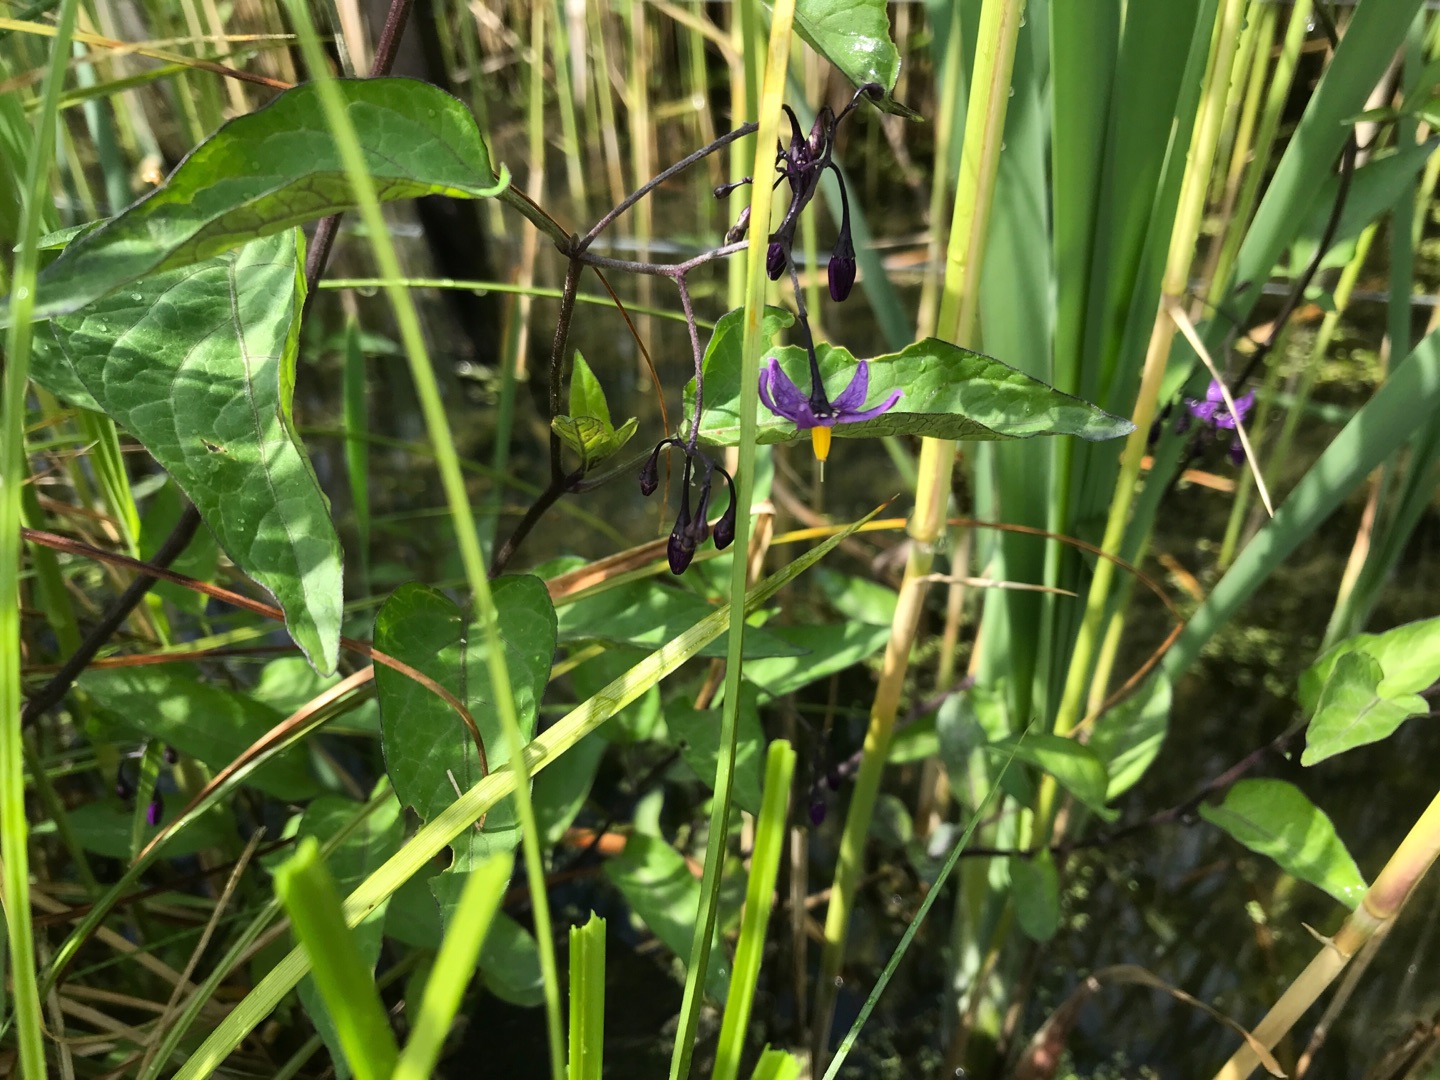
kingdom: Plantae
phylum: Tracheophyta
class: Magnoliopsida
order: Solanales
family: Solanaceae
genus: Solanum
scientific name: Solanum dulcamara
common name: Bittersød natskygge
